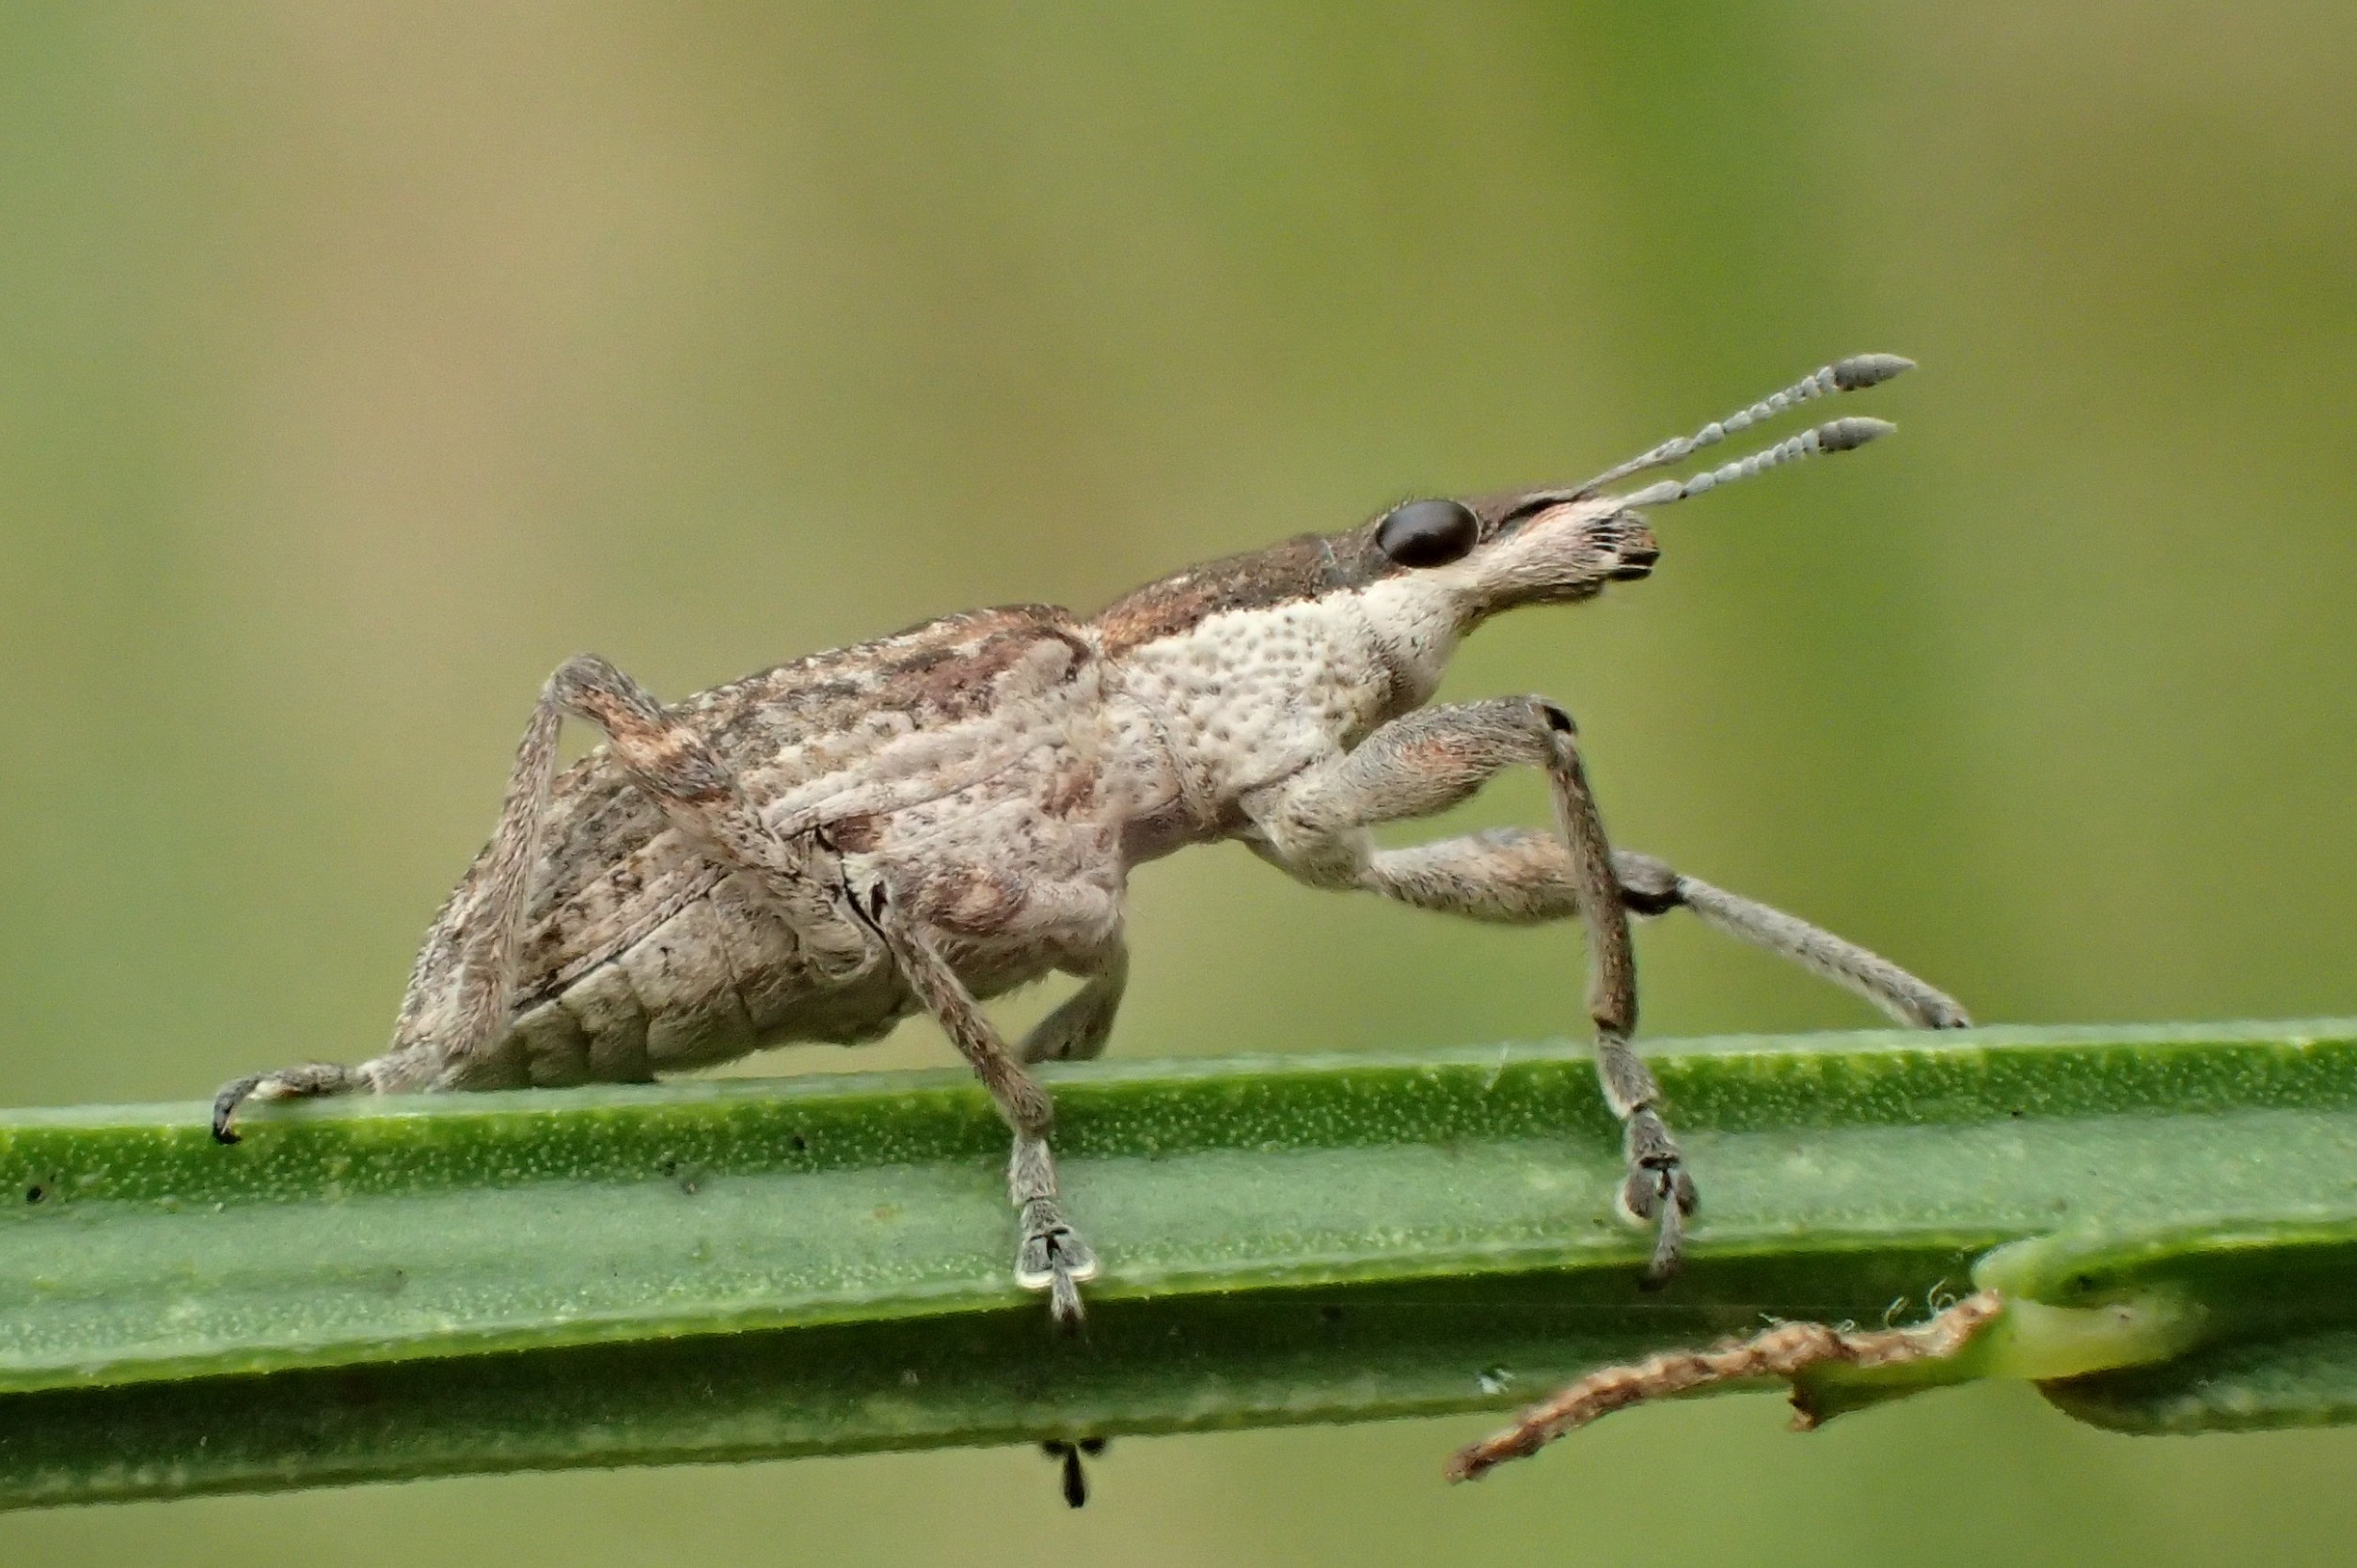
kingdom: Animalia
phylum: Arthropoda
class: Insecta
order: Coleoptera
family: Curculionidae
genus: Charagmus
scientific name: Charagmus gressorius
